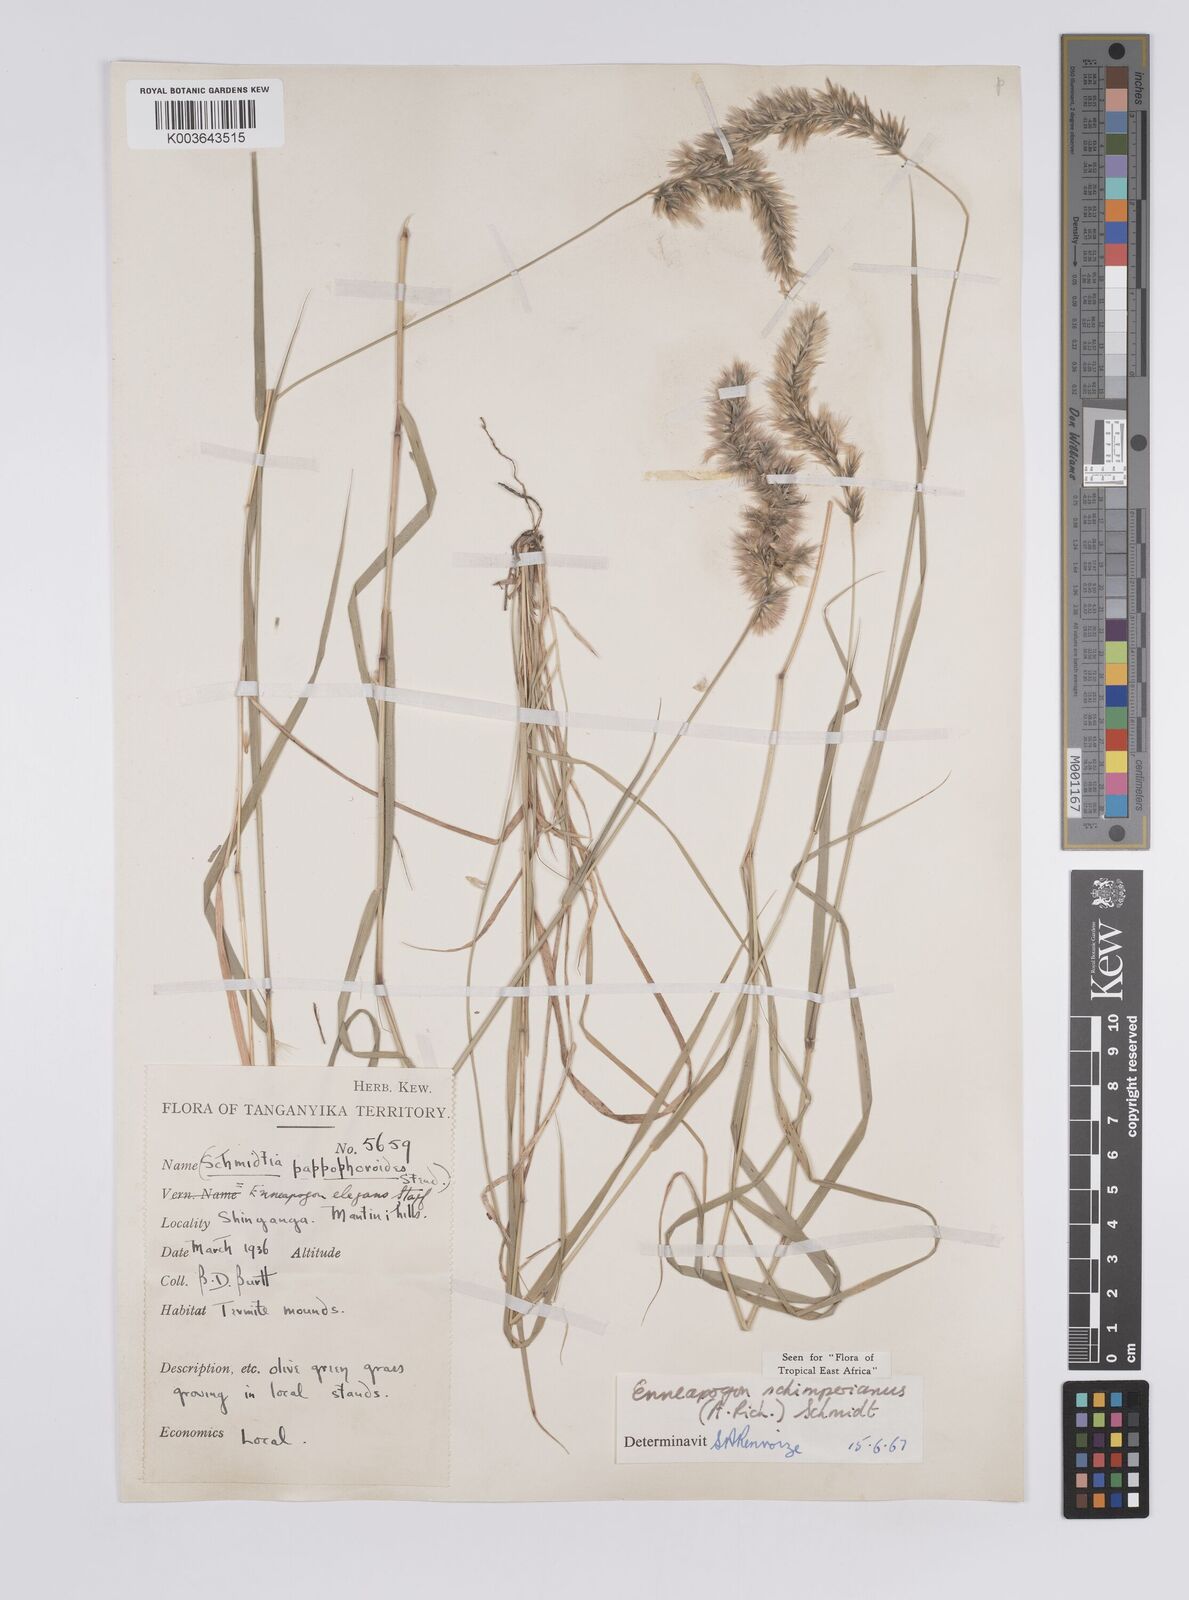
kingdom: Plantae
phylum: Tracheophyta
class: Liliopsida
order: Poales
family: Poaceae
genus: Enneapogon
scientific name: Enneapogon persicus
